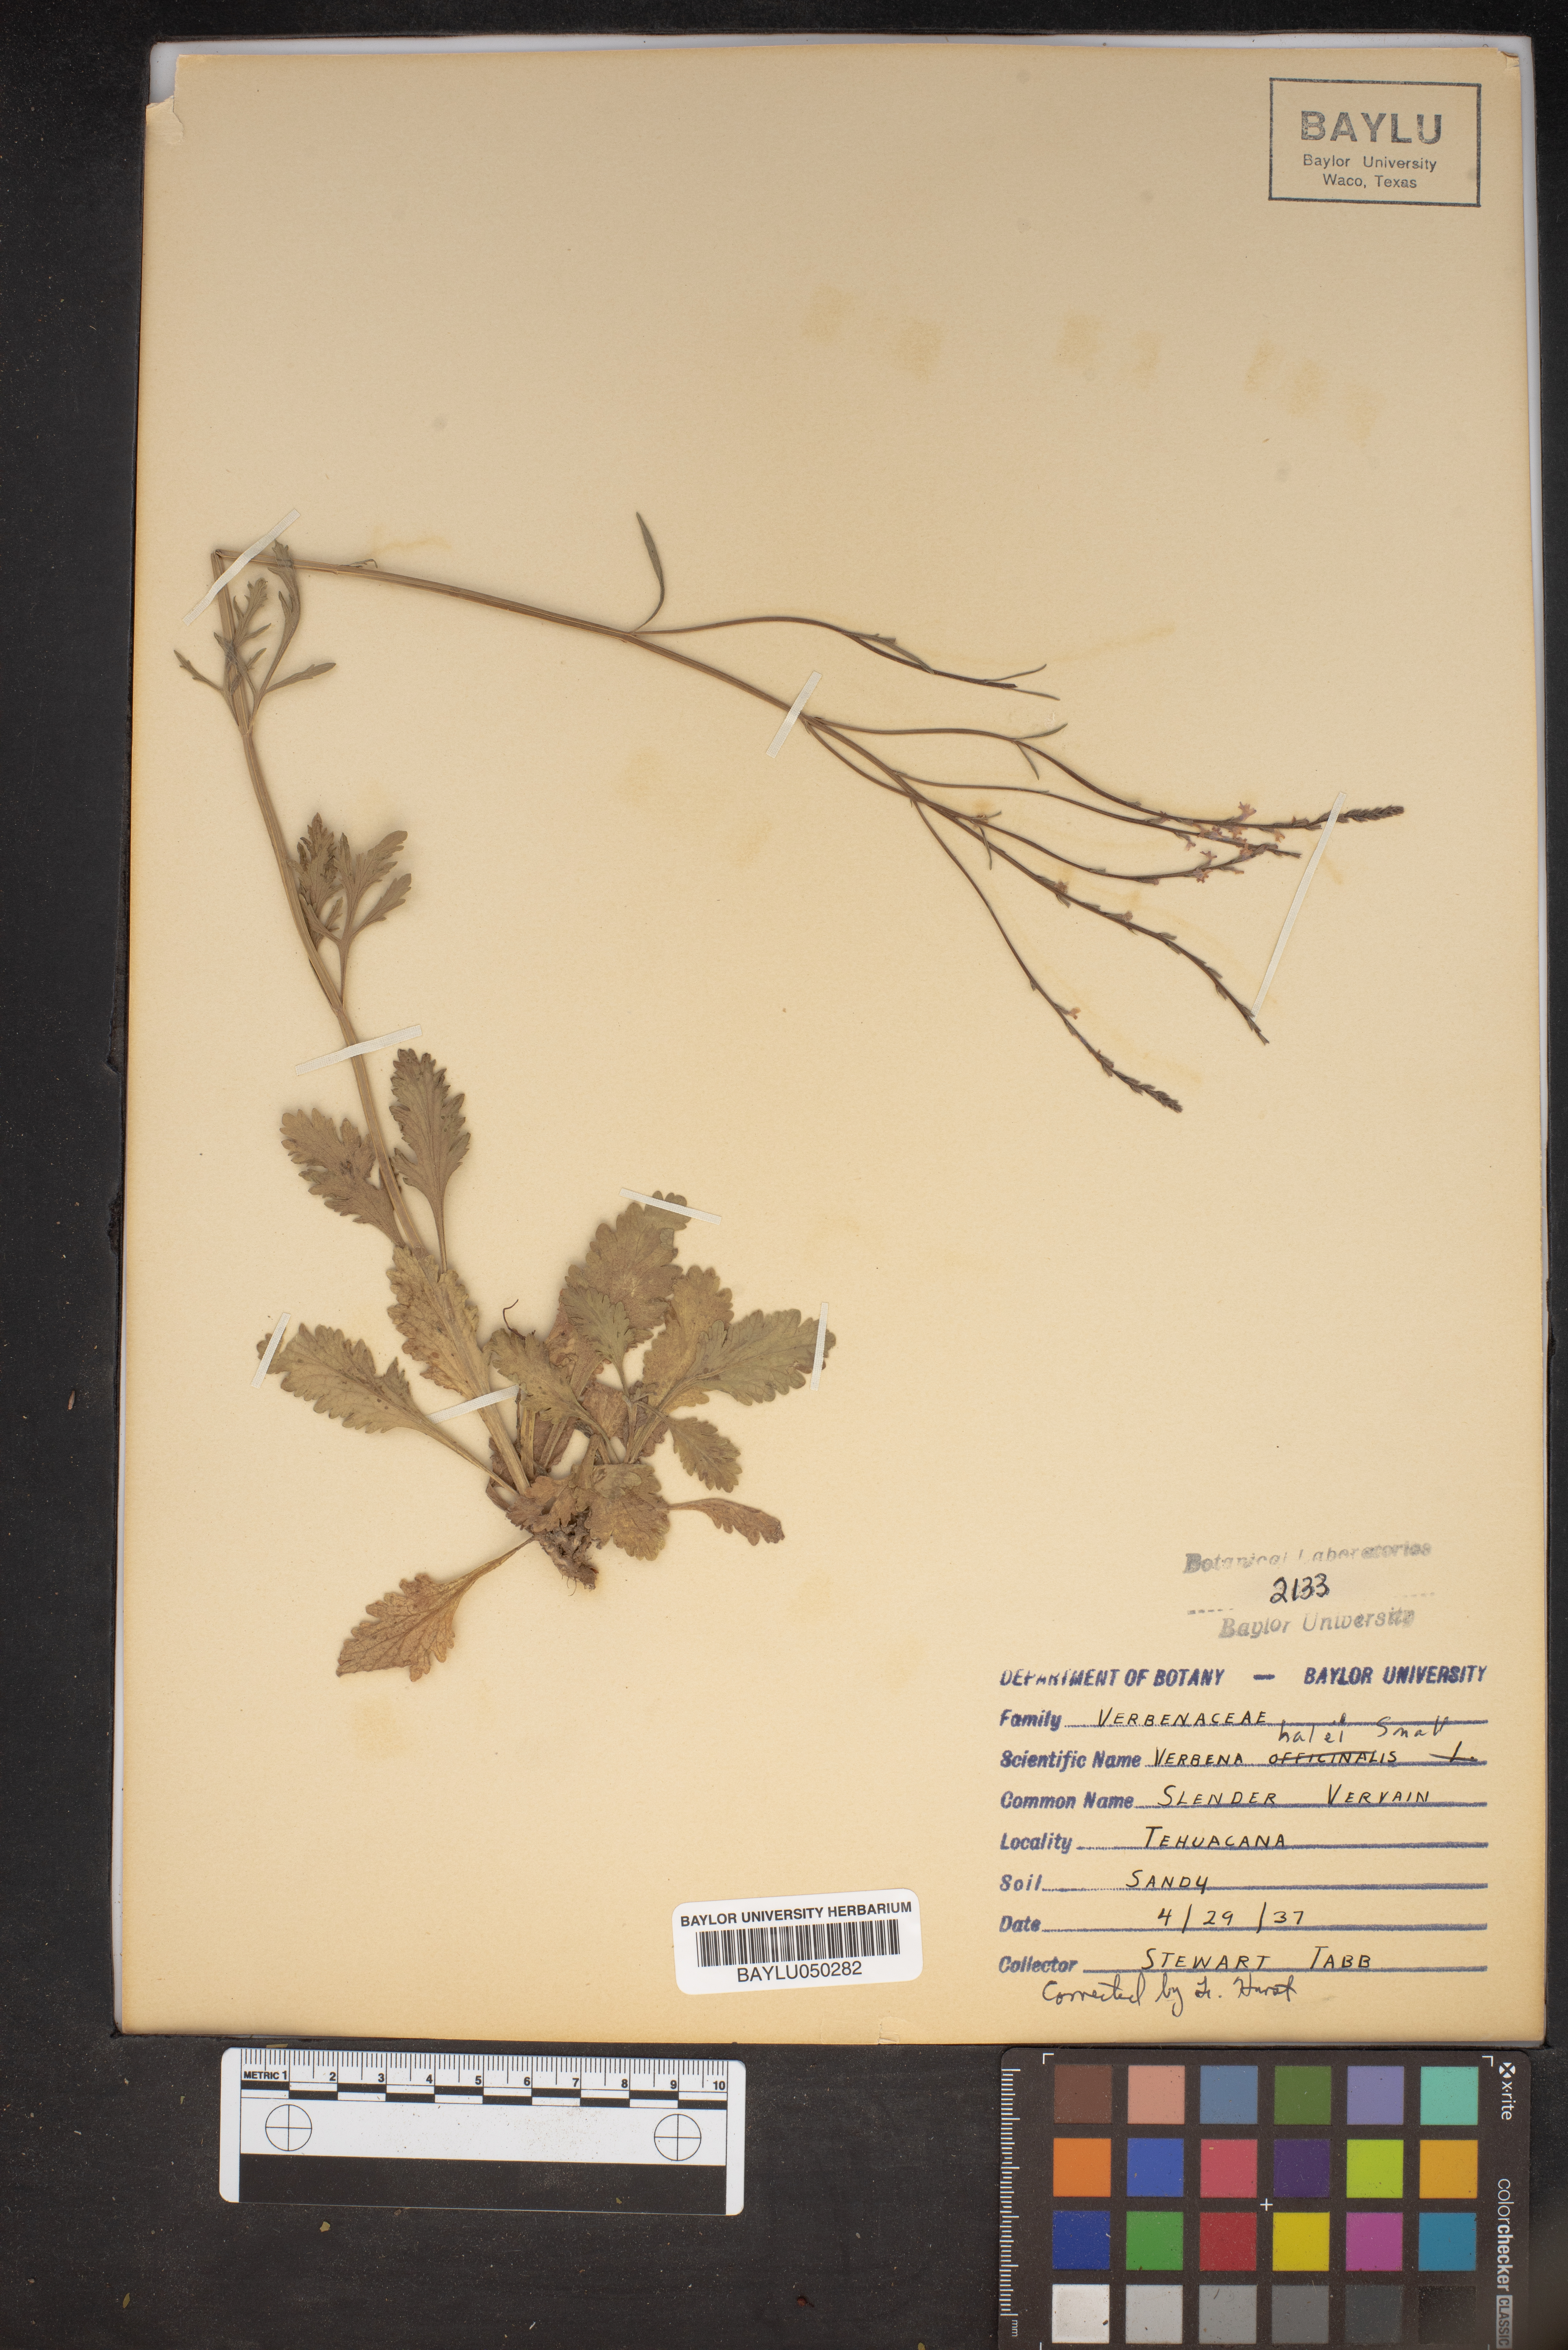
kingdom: Plantae
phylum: Tracheophyta
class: Magnoliopsida
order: Lamiales
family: Verbenaceae
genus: Verbena
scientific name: Verbena halei
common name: Texas vervain
